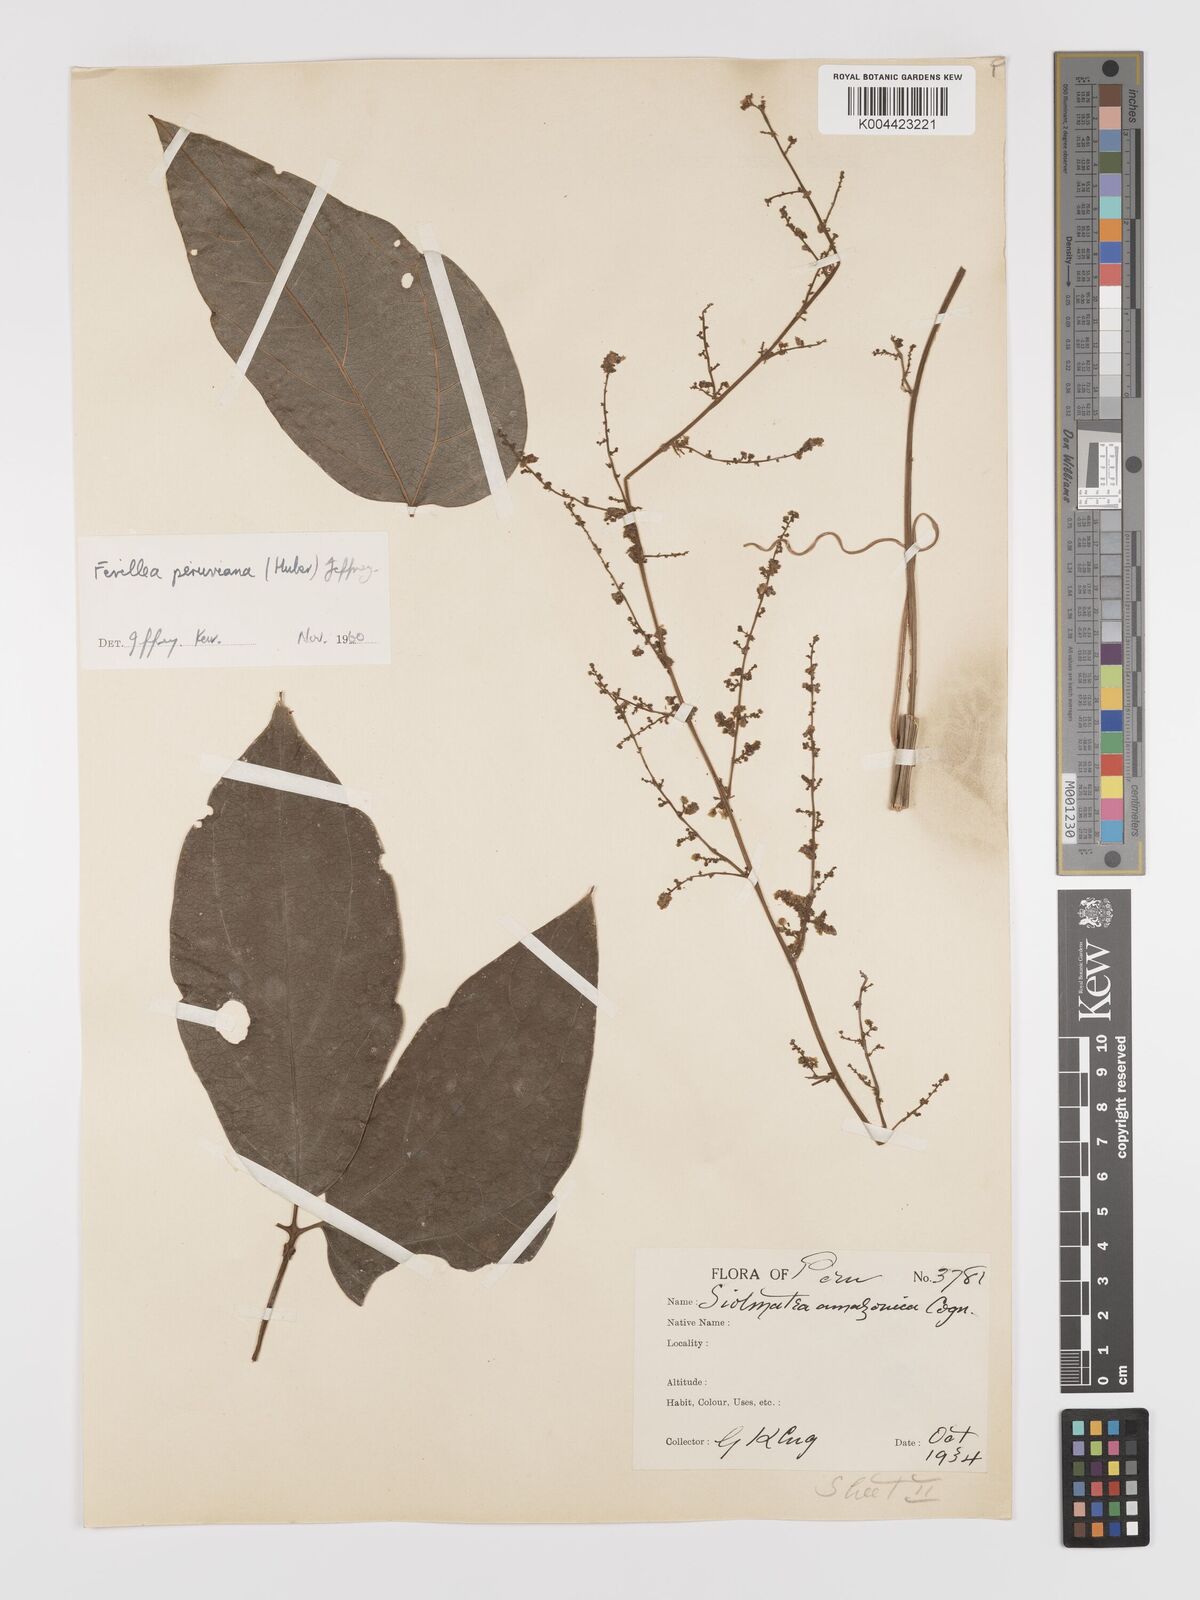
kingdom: Plantae
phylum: Tracheophyta
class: Magnoliopsida
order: Cucurbitales
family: Cucurbitaceae
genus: Fevillea
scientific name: Fevillea pedatifolia
